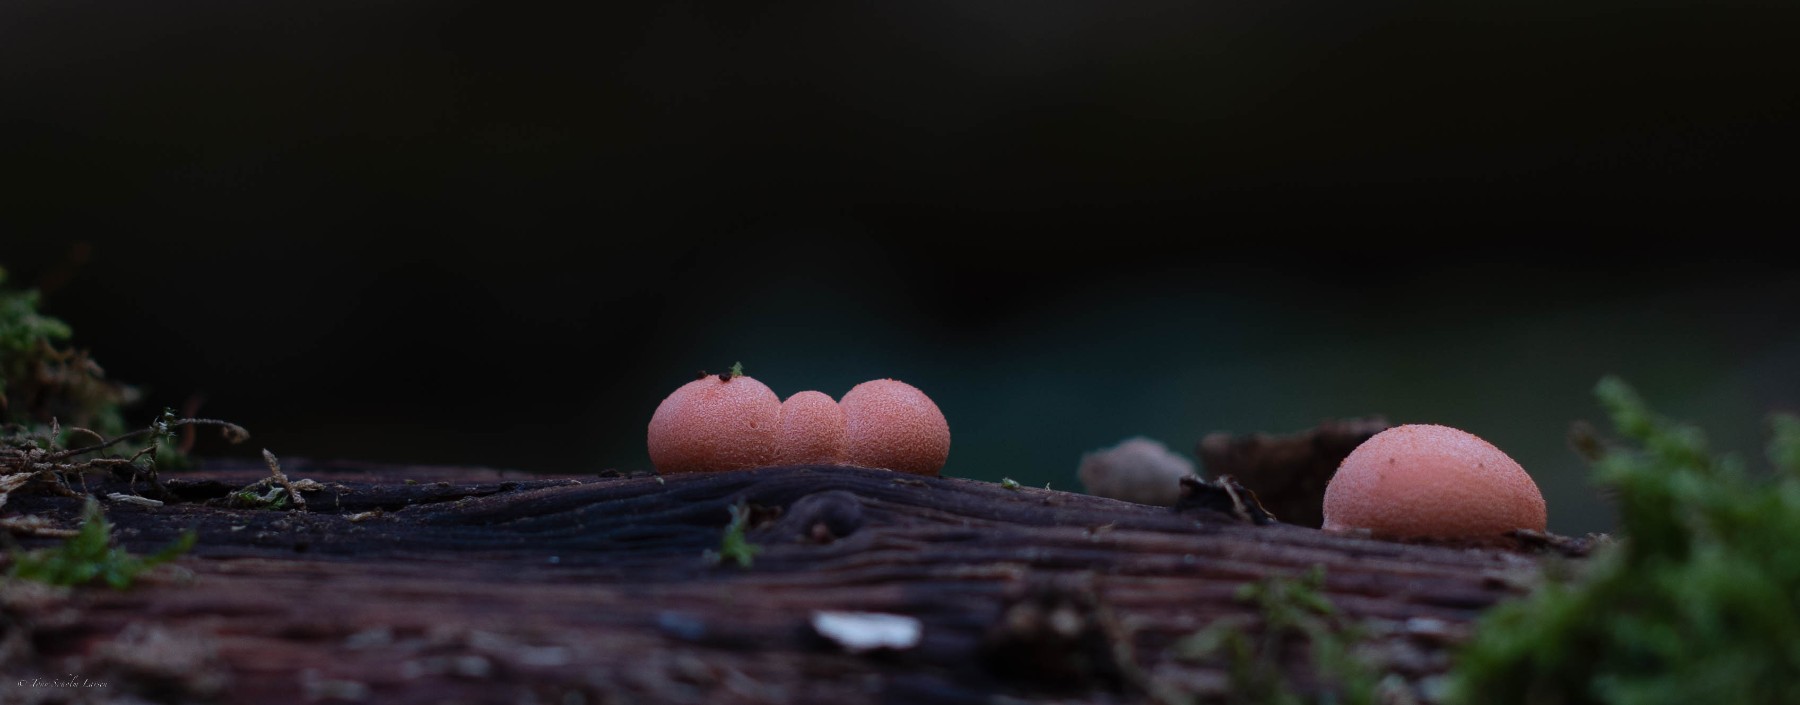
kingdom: Protozoa
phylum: Mycetozoa
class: Myxomycetes
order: Cribrariales
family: Tubiferaceae
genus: Lycogala
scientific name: Lycogala epidendrum
